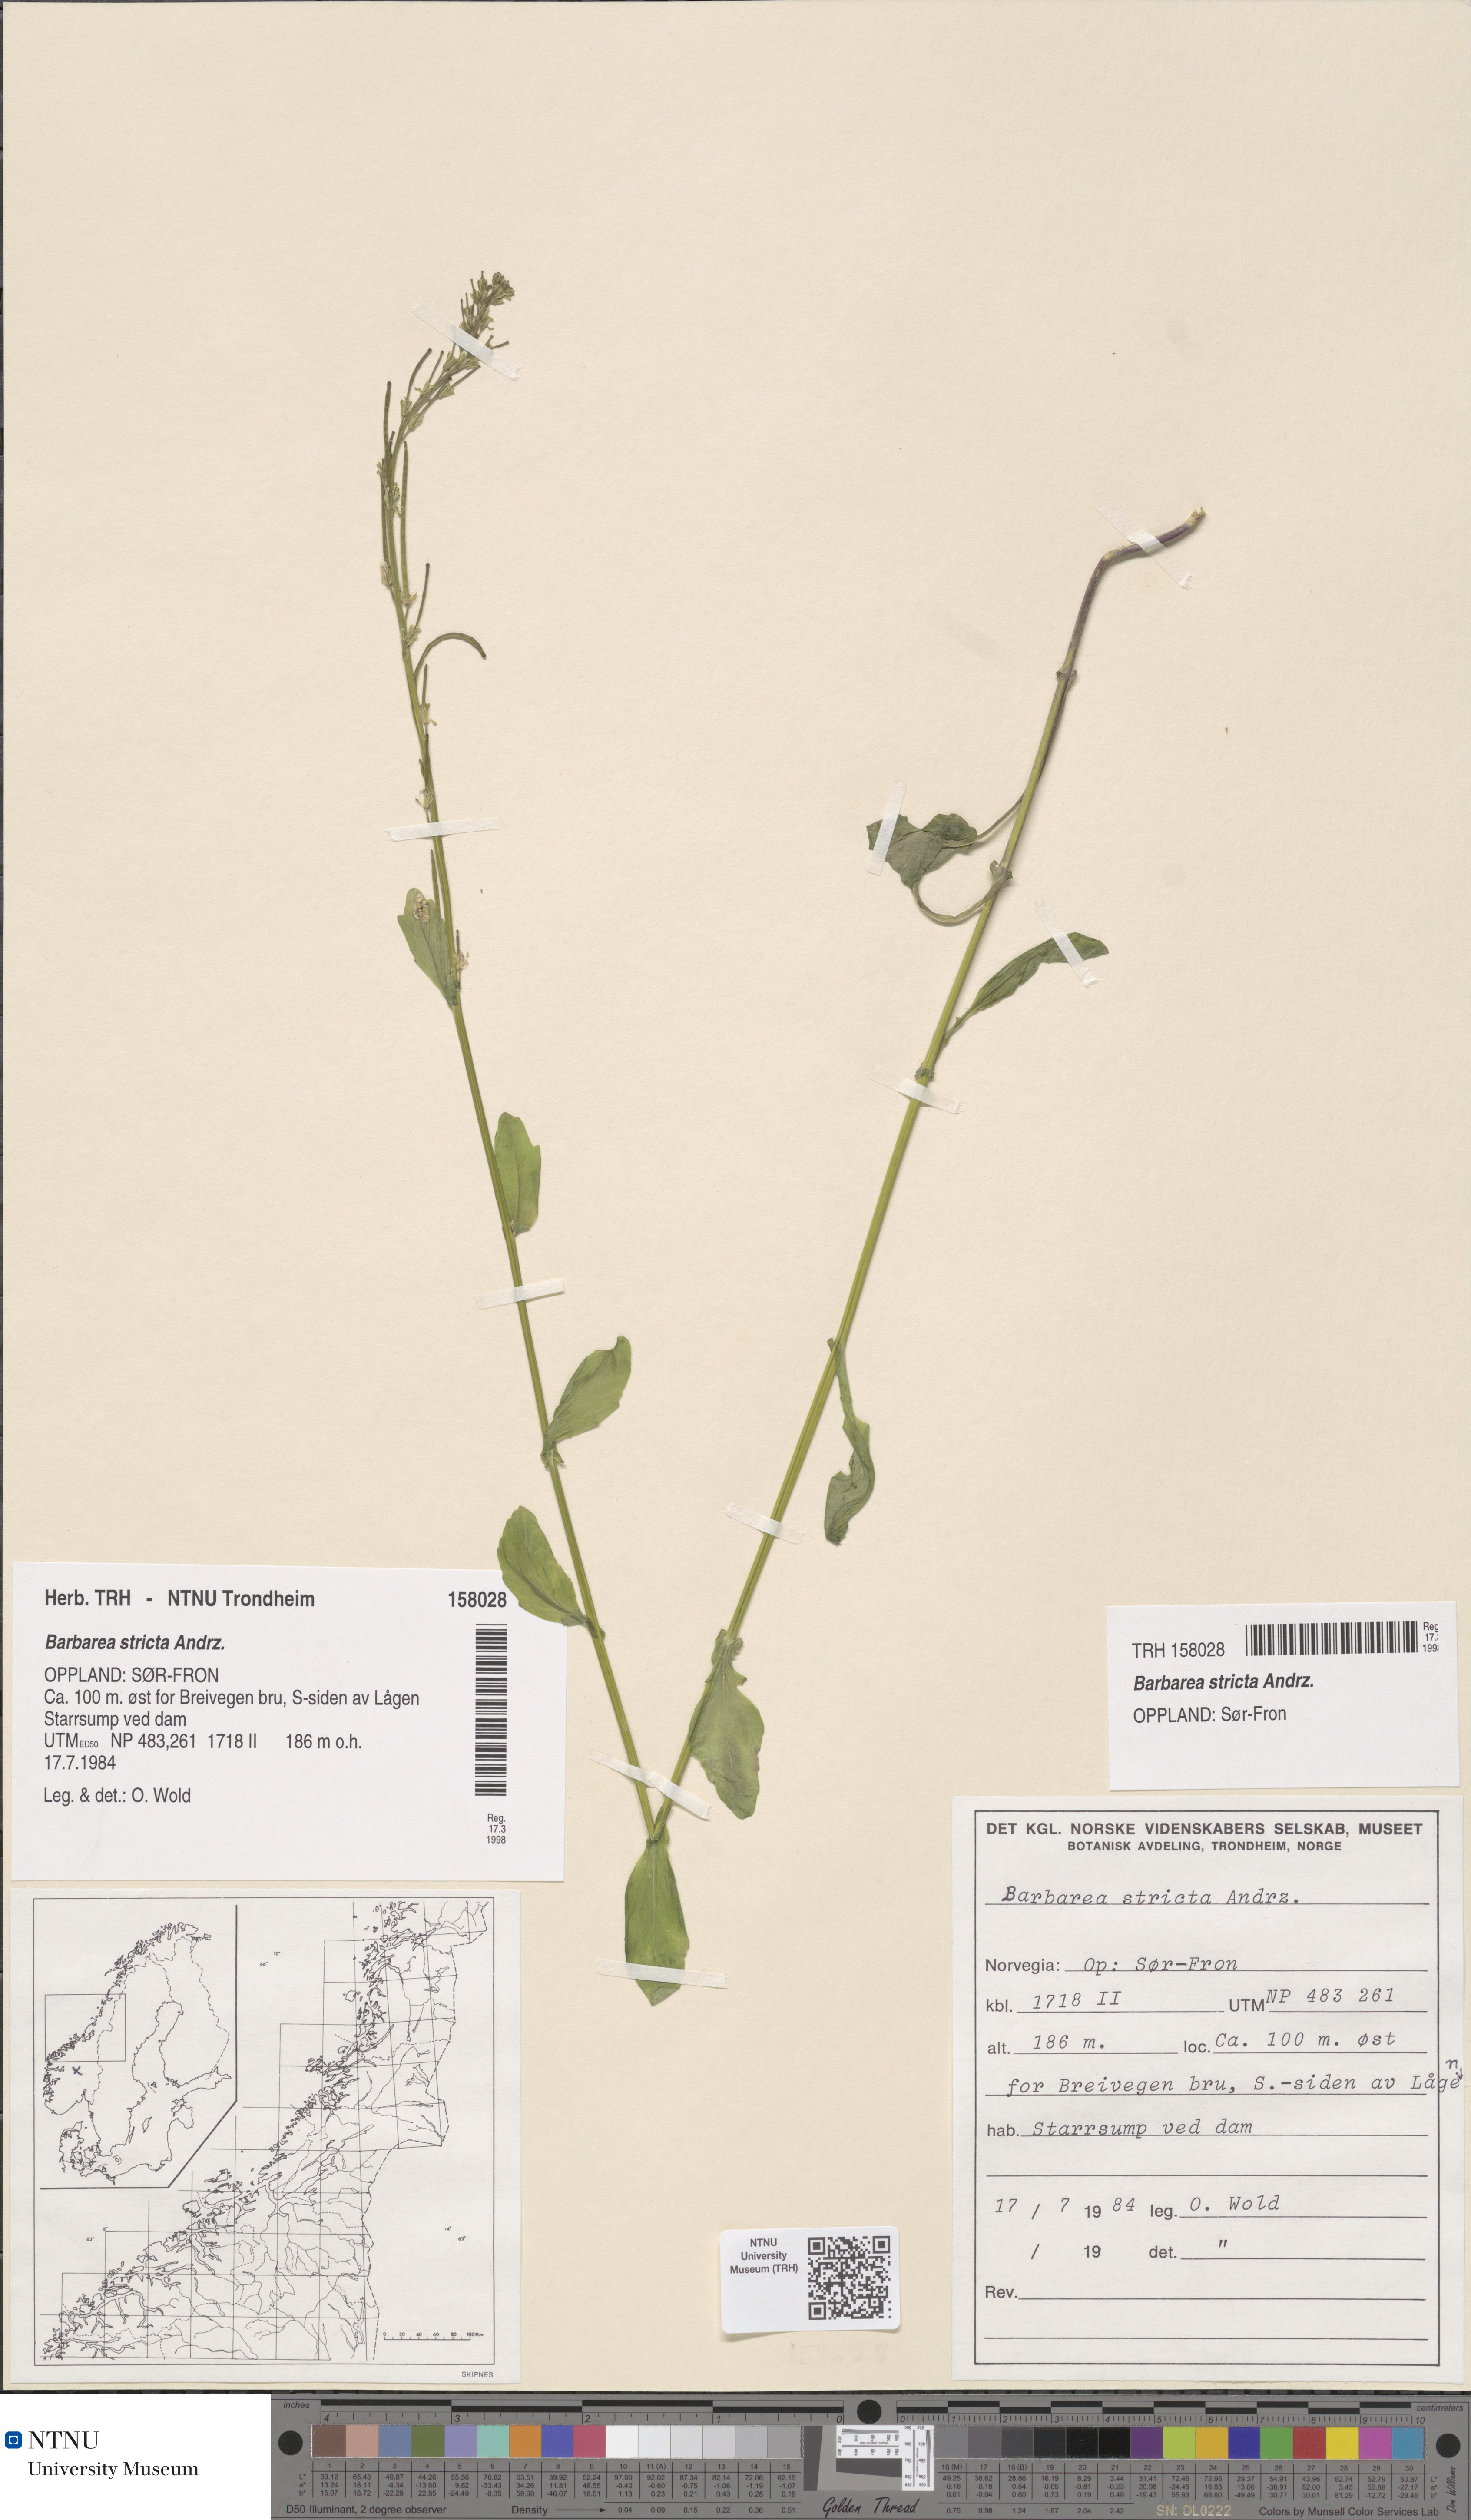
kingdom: Plantae
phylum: Tracheophyta
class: Magnoliopsida
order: Brassicales
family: Brassicaceae
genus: Barbarea
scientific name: Barbarea stricta
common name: Small-flowered winter-cress
